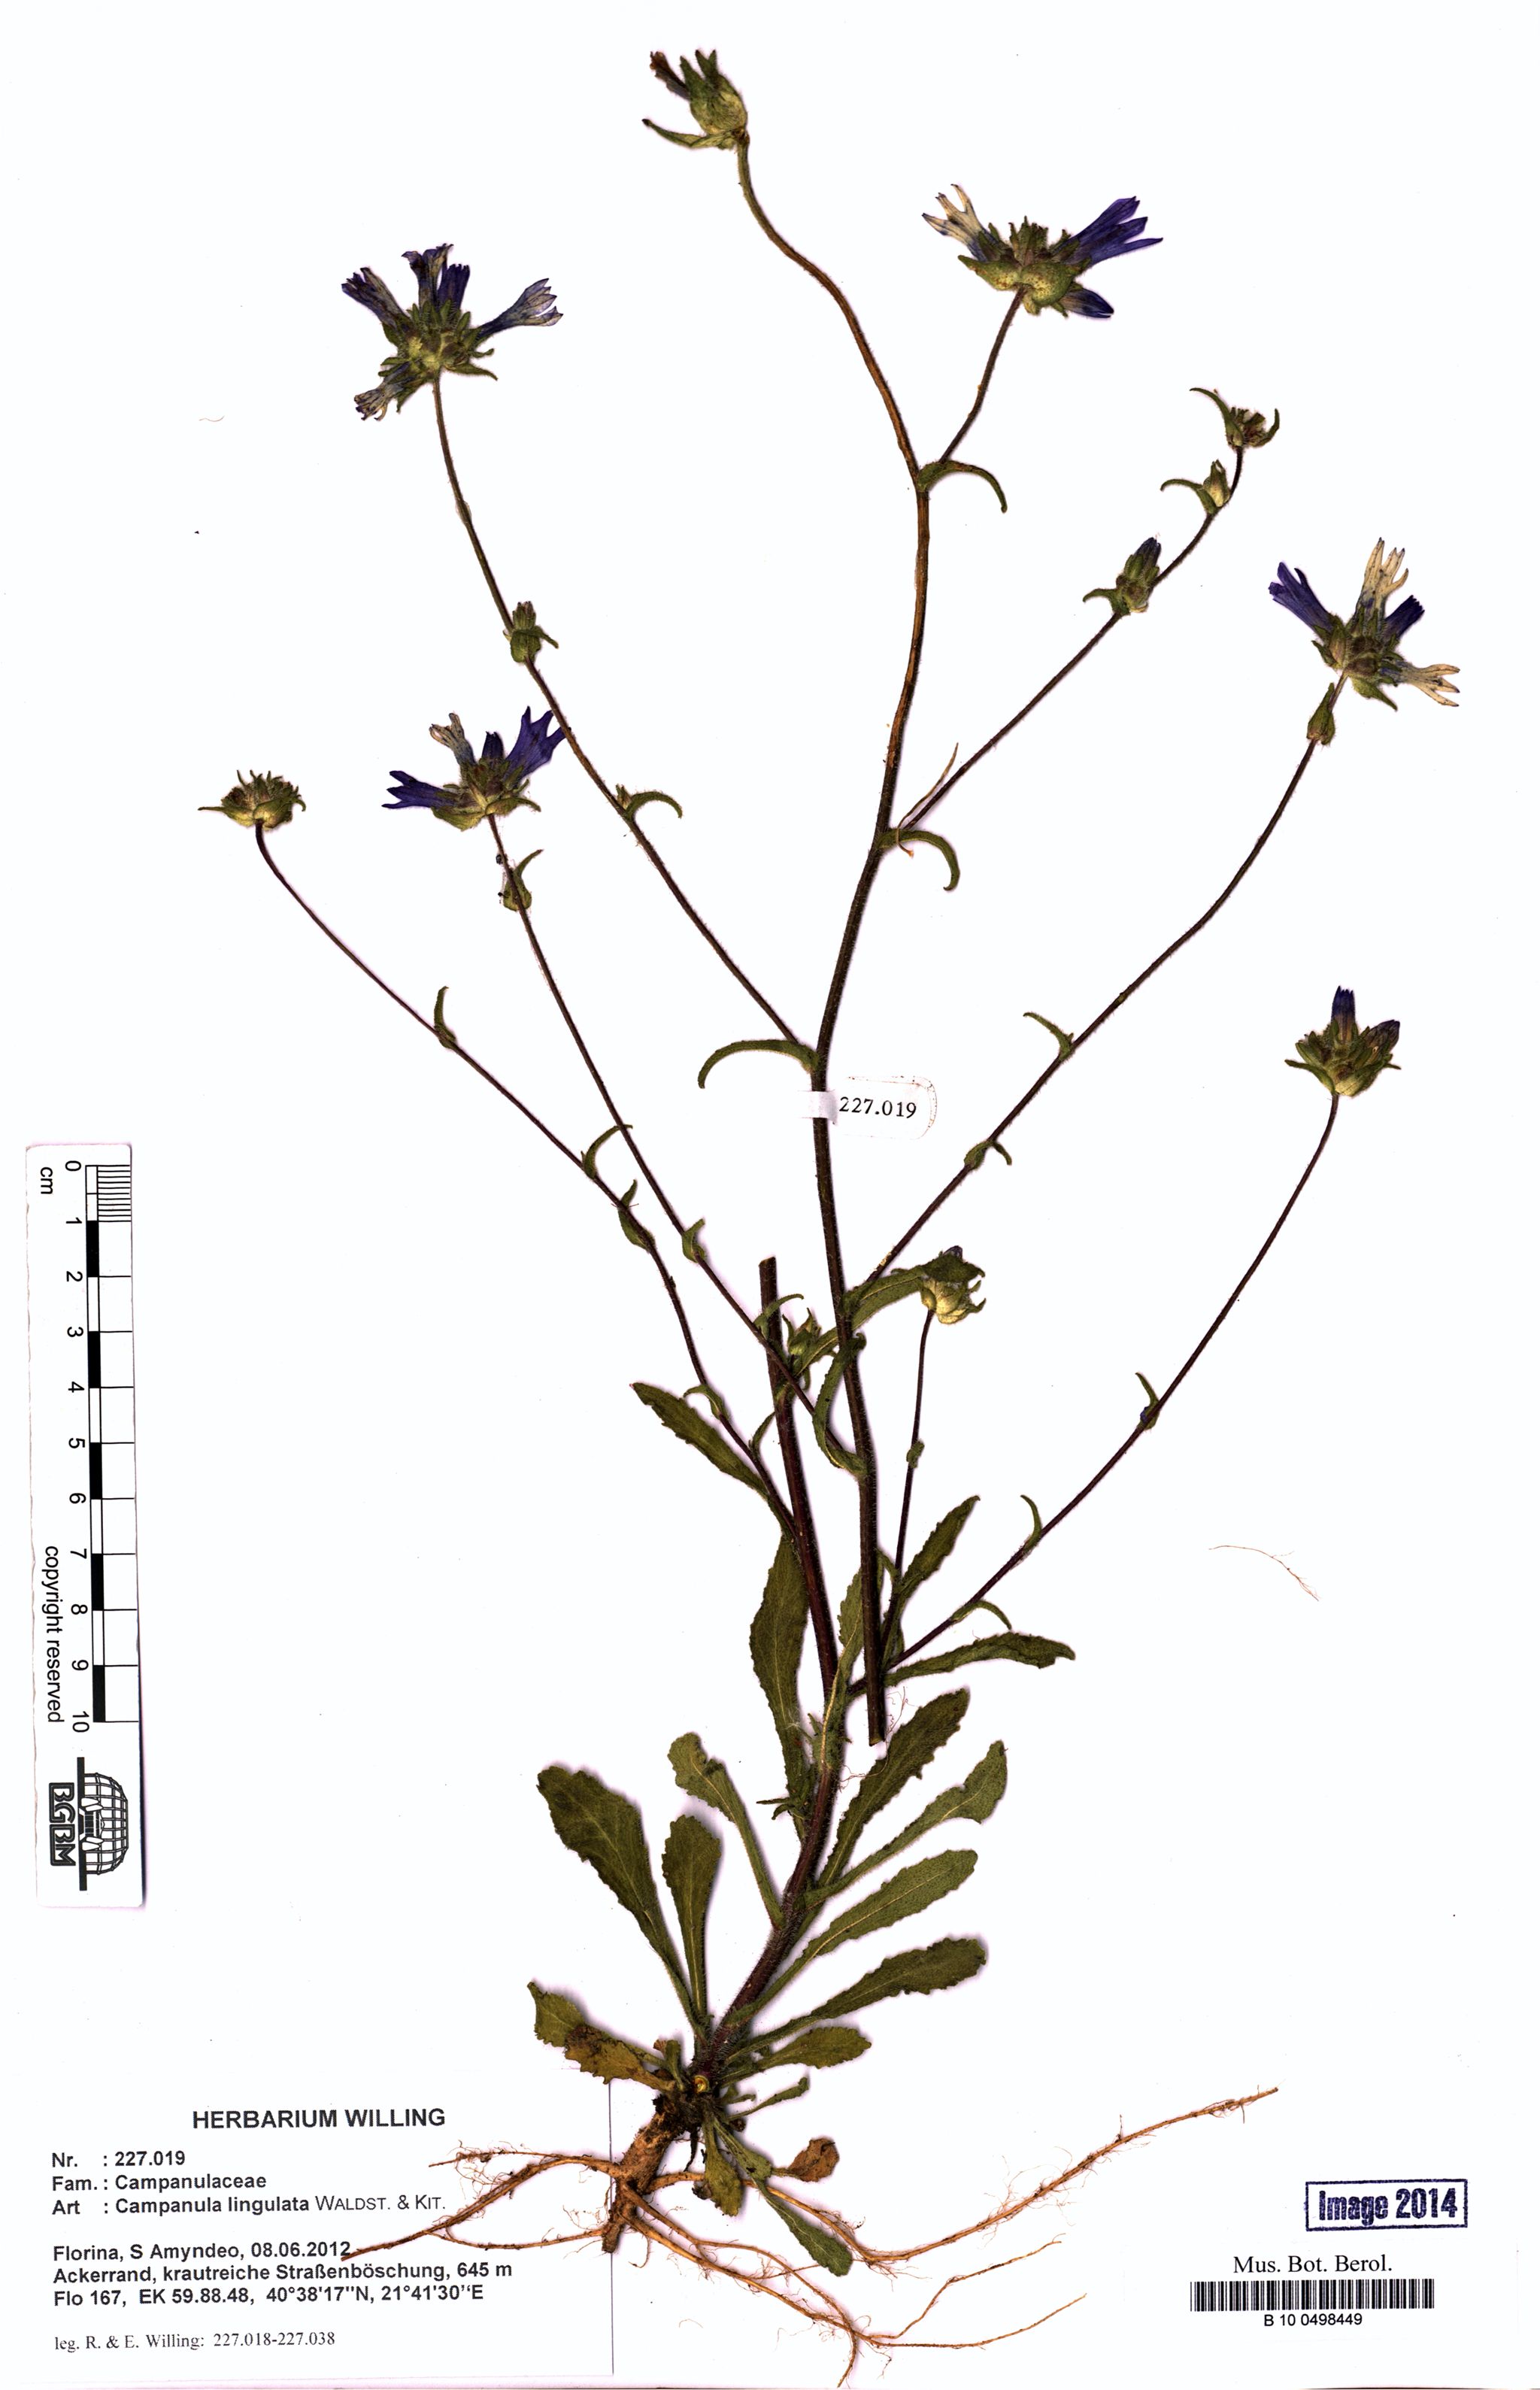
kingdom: Plantae
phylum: Tracheophyta
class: Magnoliopsida
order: Asterales
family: Campanulaceae
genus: Campanula
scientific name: Campanula lingulata
